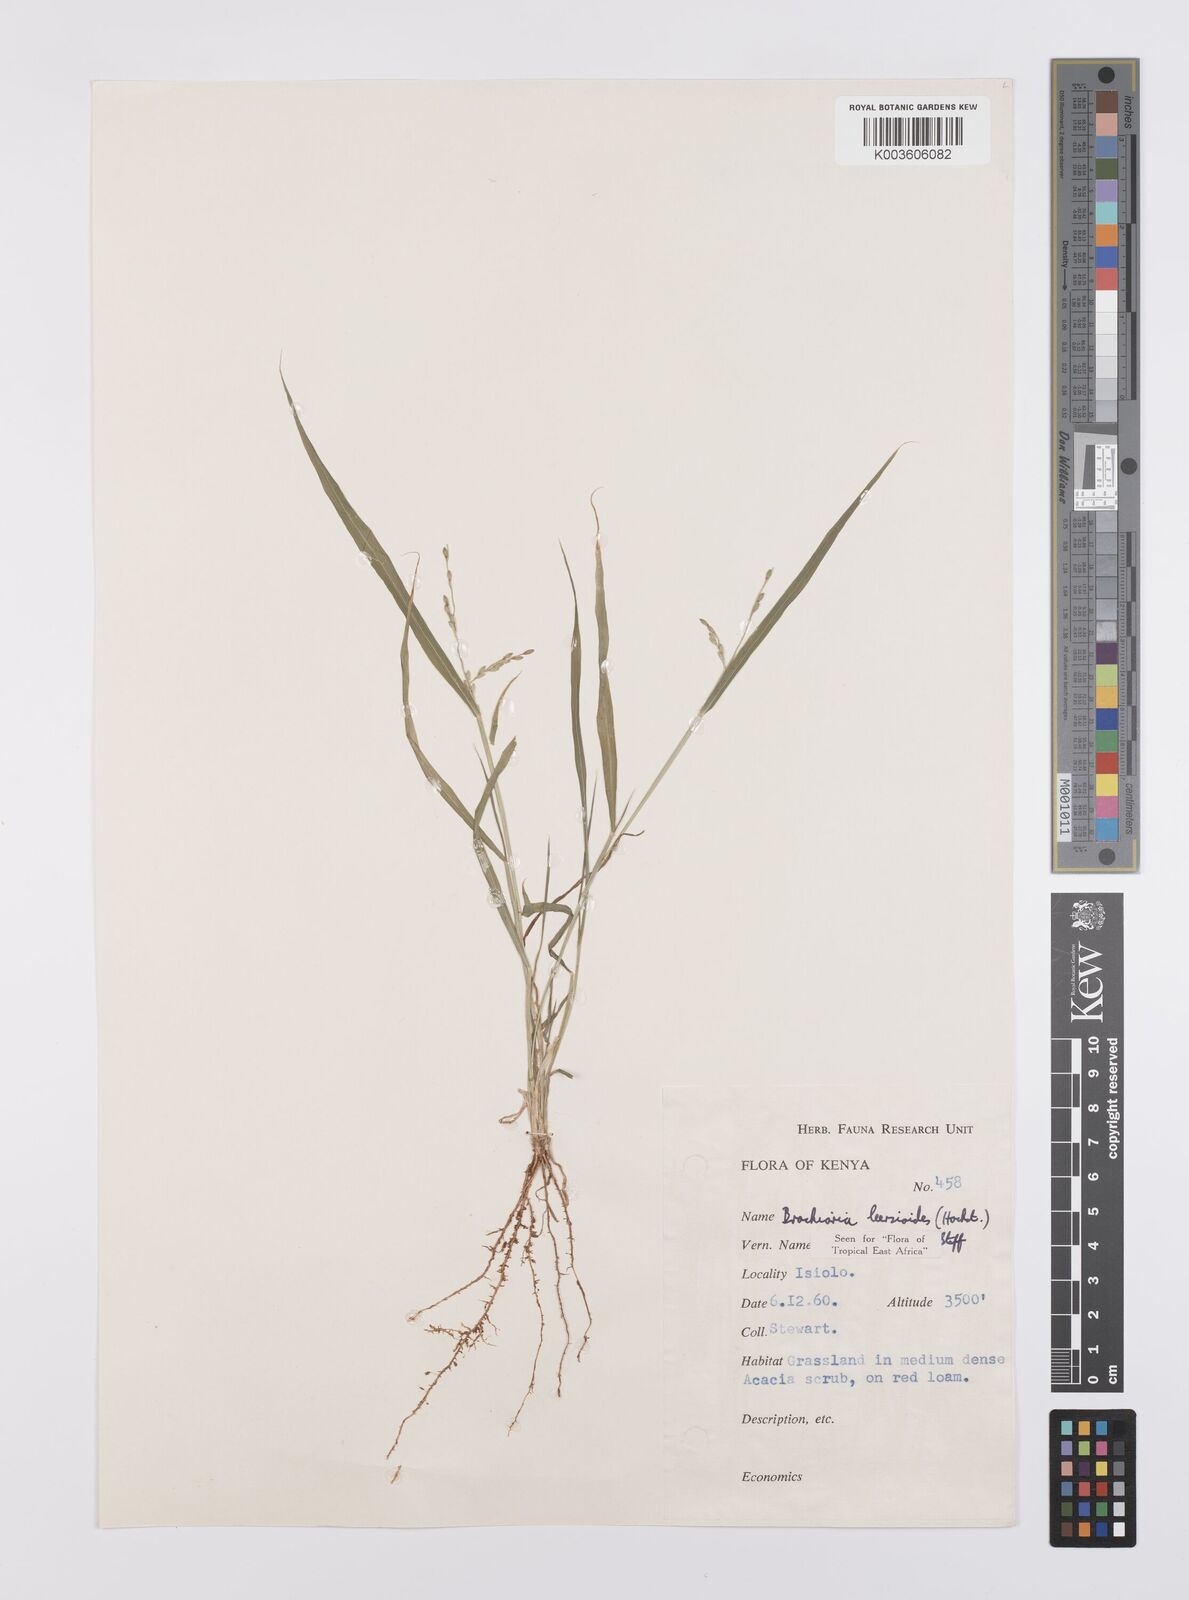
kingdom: Plantae
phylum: Tracheophyta
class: Liliopsida
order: Poales
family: Poaceae
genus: Urochloa
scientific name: Urochloa leersioides
